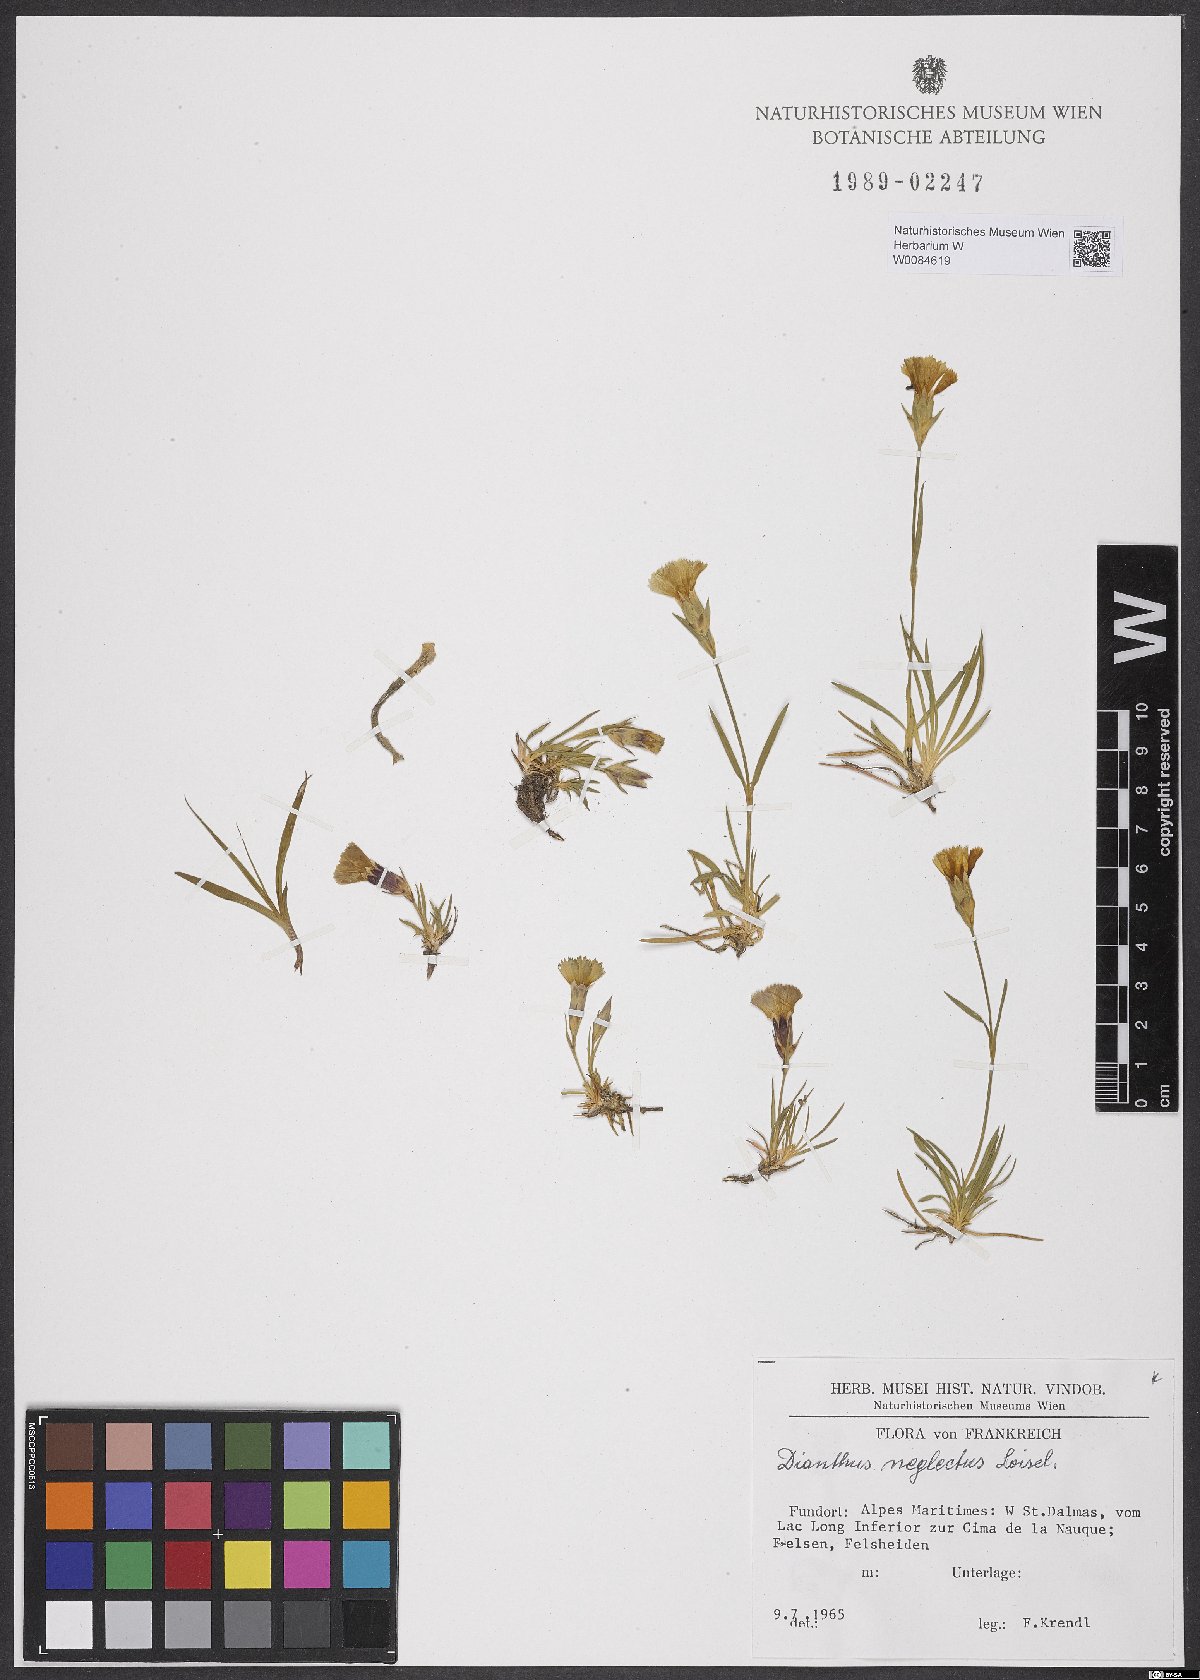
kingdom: Plantae
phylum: Tracheophyta
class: Magnoliopsida
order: Caryophyllales
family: Caryophyllaceae
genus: Dianthus
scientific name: Dianthus seguieri
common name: Ragged pink
